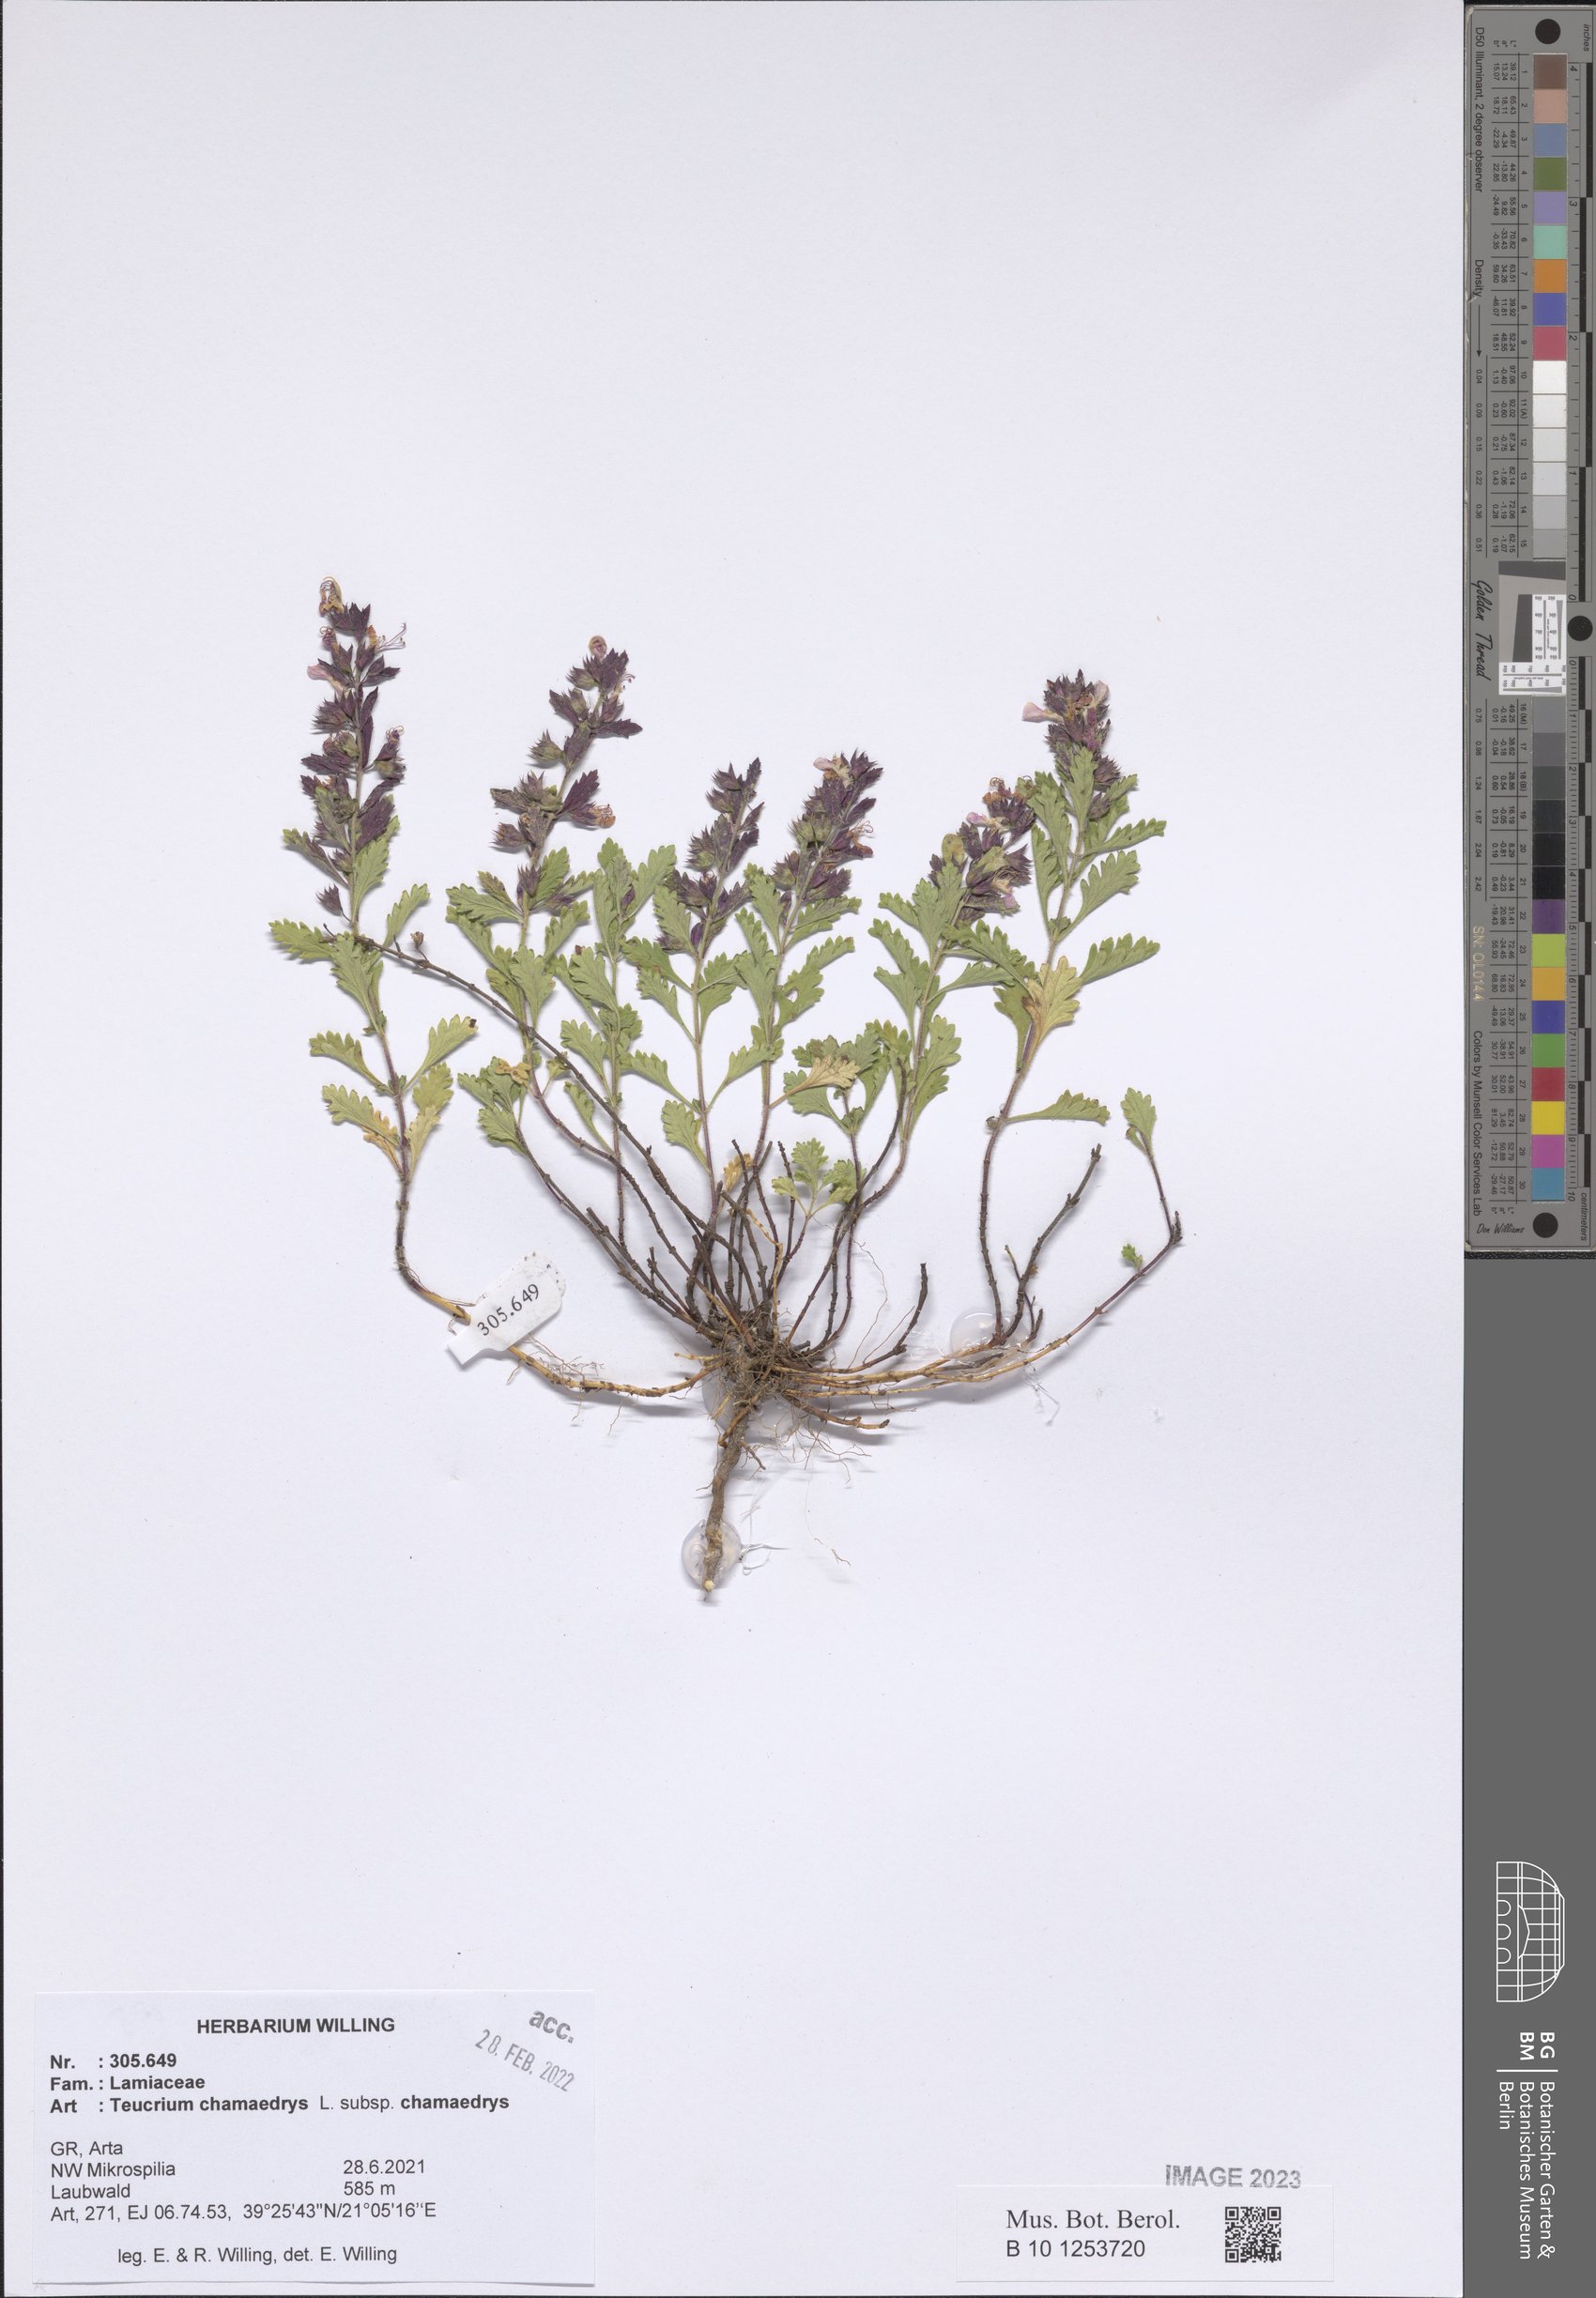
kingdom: Plantae
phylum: Tracheophyta
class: Magnoliopsida
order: Lamiales
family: Lamiaceae
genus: Teucrium
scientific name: Teucrium chamaedrys
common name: Wall germander
